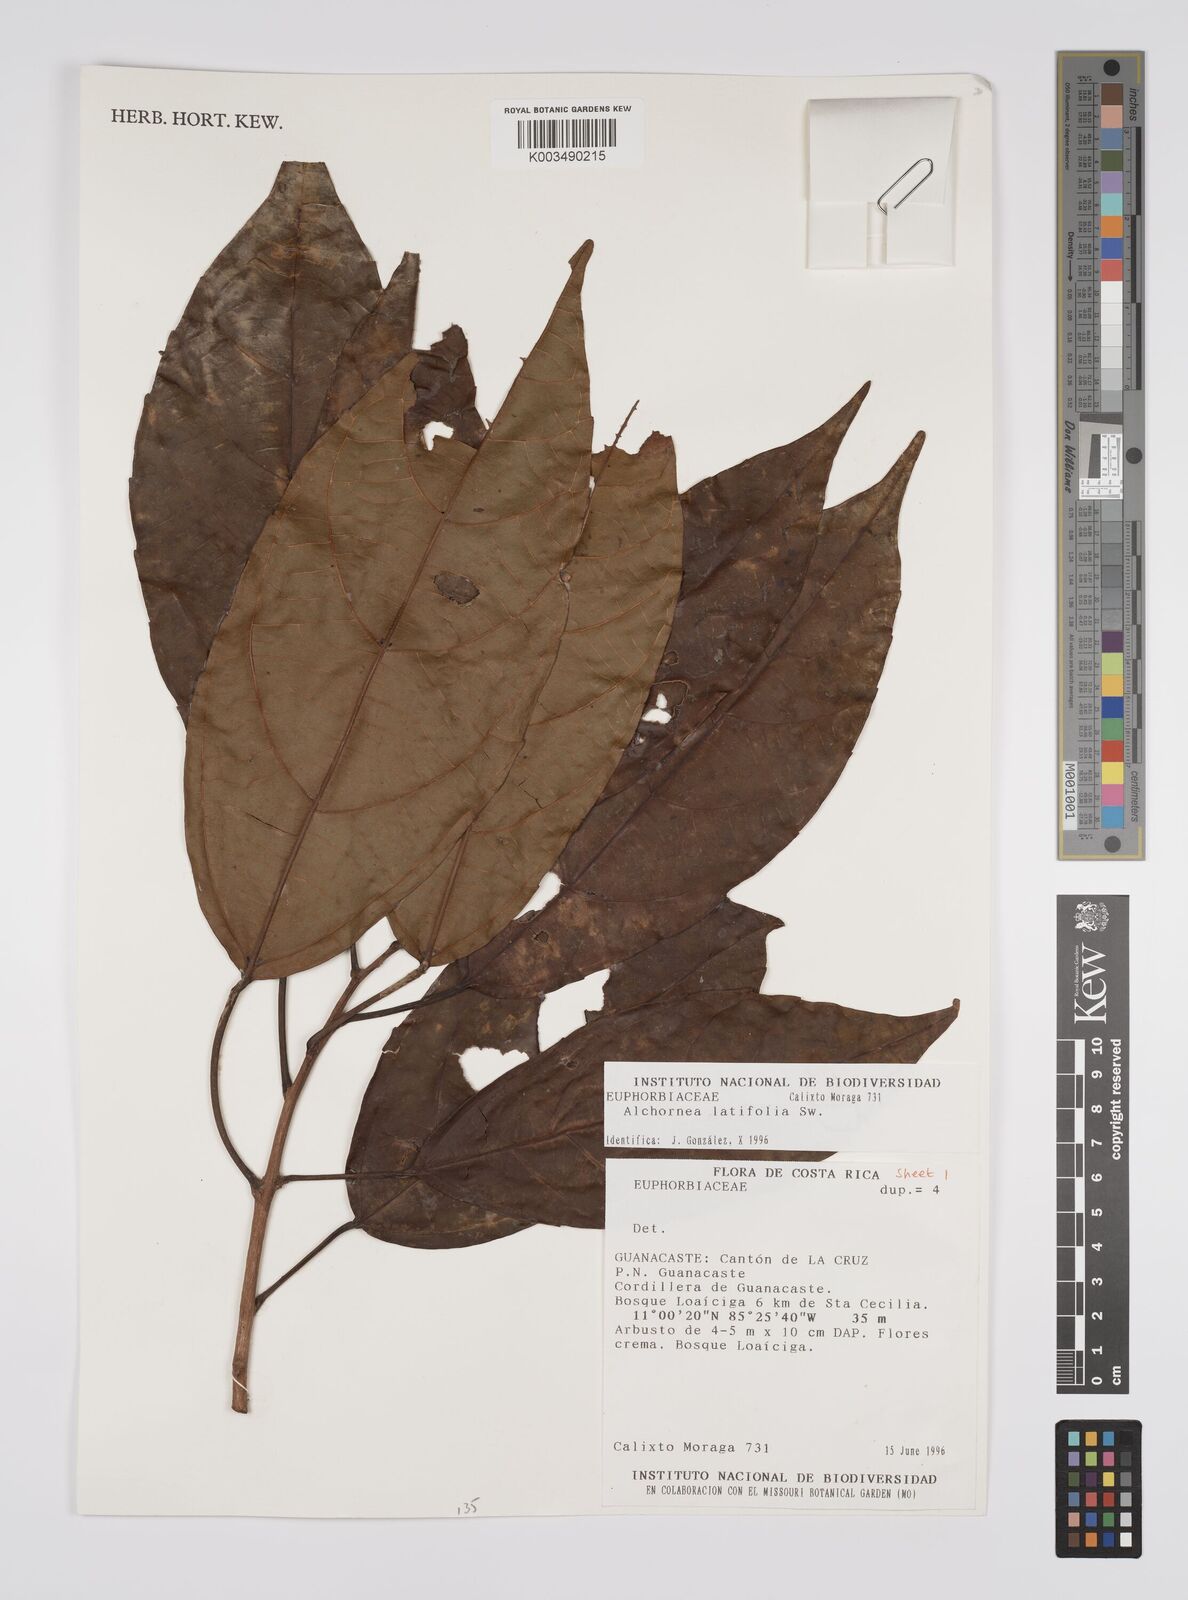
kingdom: Plantae
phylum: Tracheophyta
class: Magnoliopsida
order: Malpighiales
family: Euphorbiaceae
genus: Alchornea
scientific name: Alchornea latifolia
